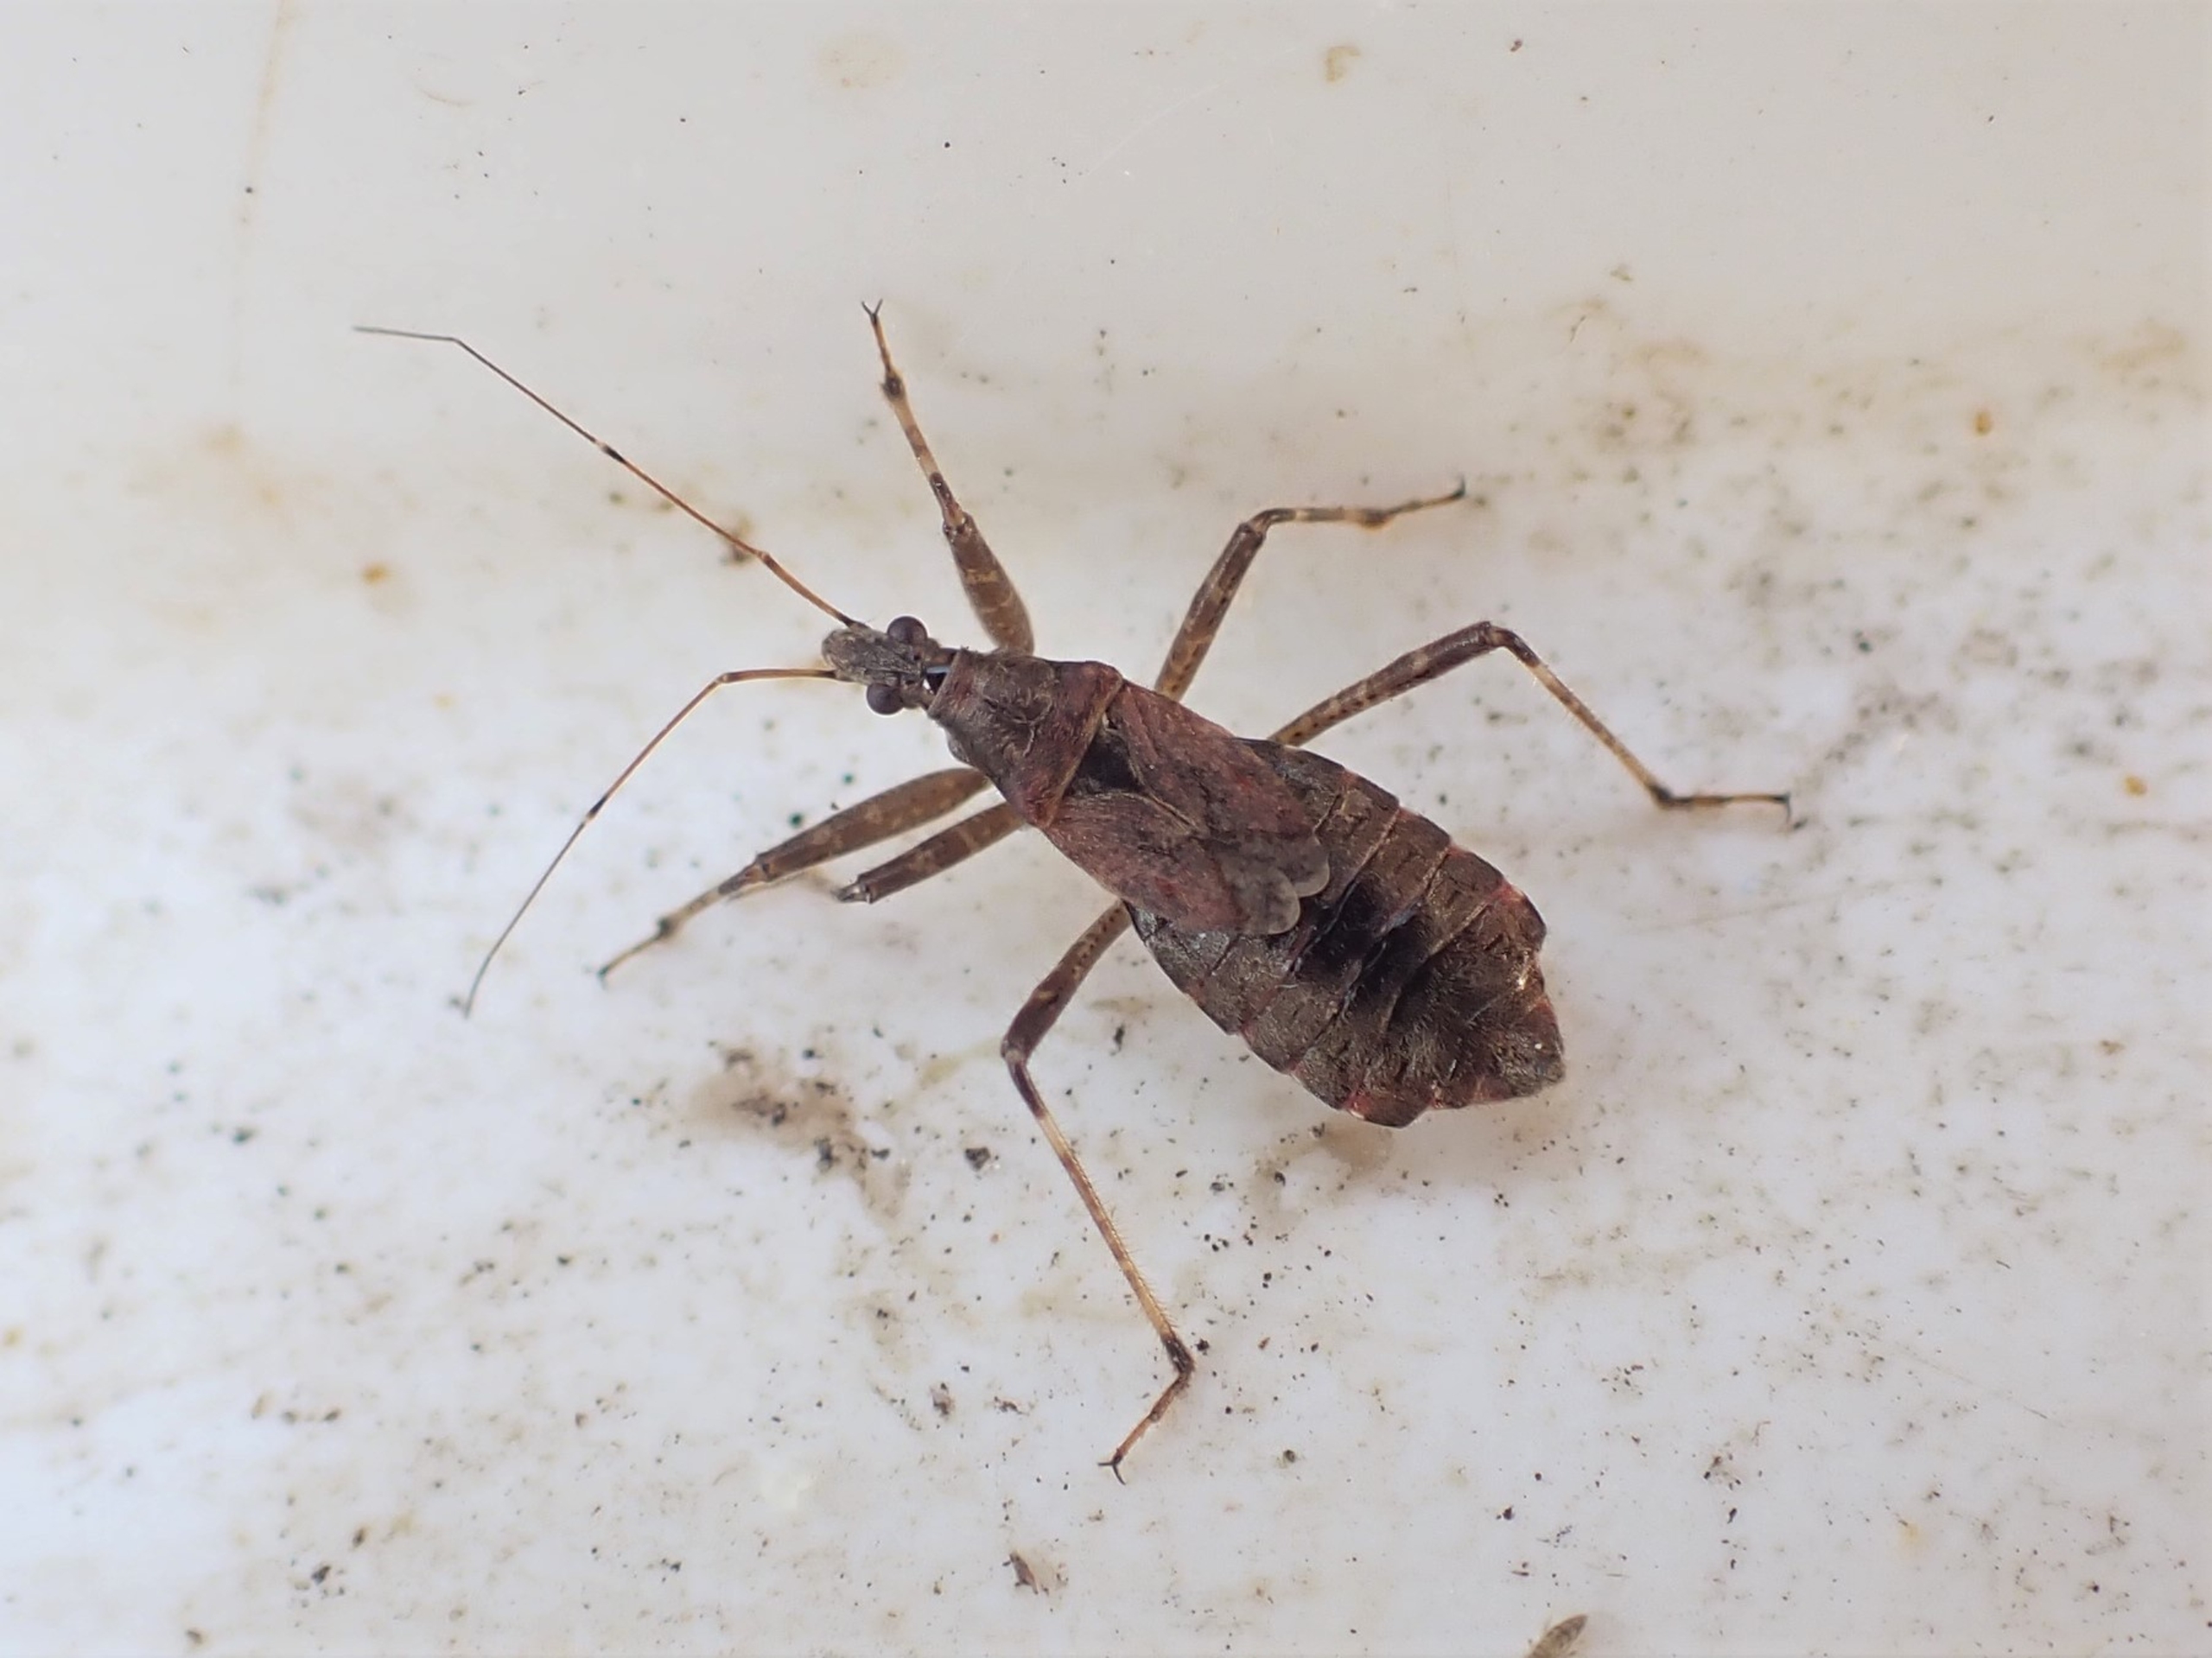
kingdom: Animalia
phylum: Arthropoda
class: Insecta
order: Hemiptera
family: Nabidae
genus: Himacerus
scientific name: Himacerus apterus
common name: Stor nymfetæge
